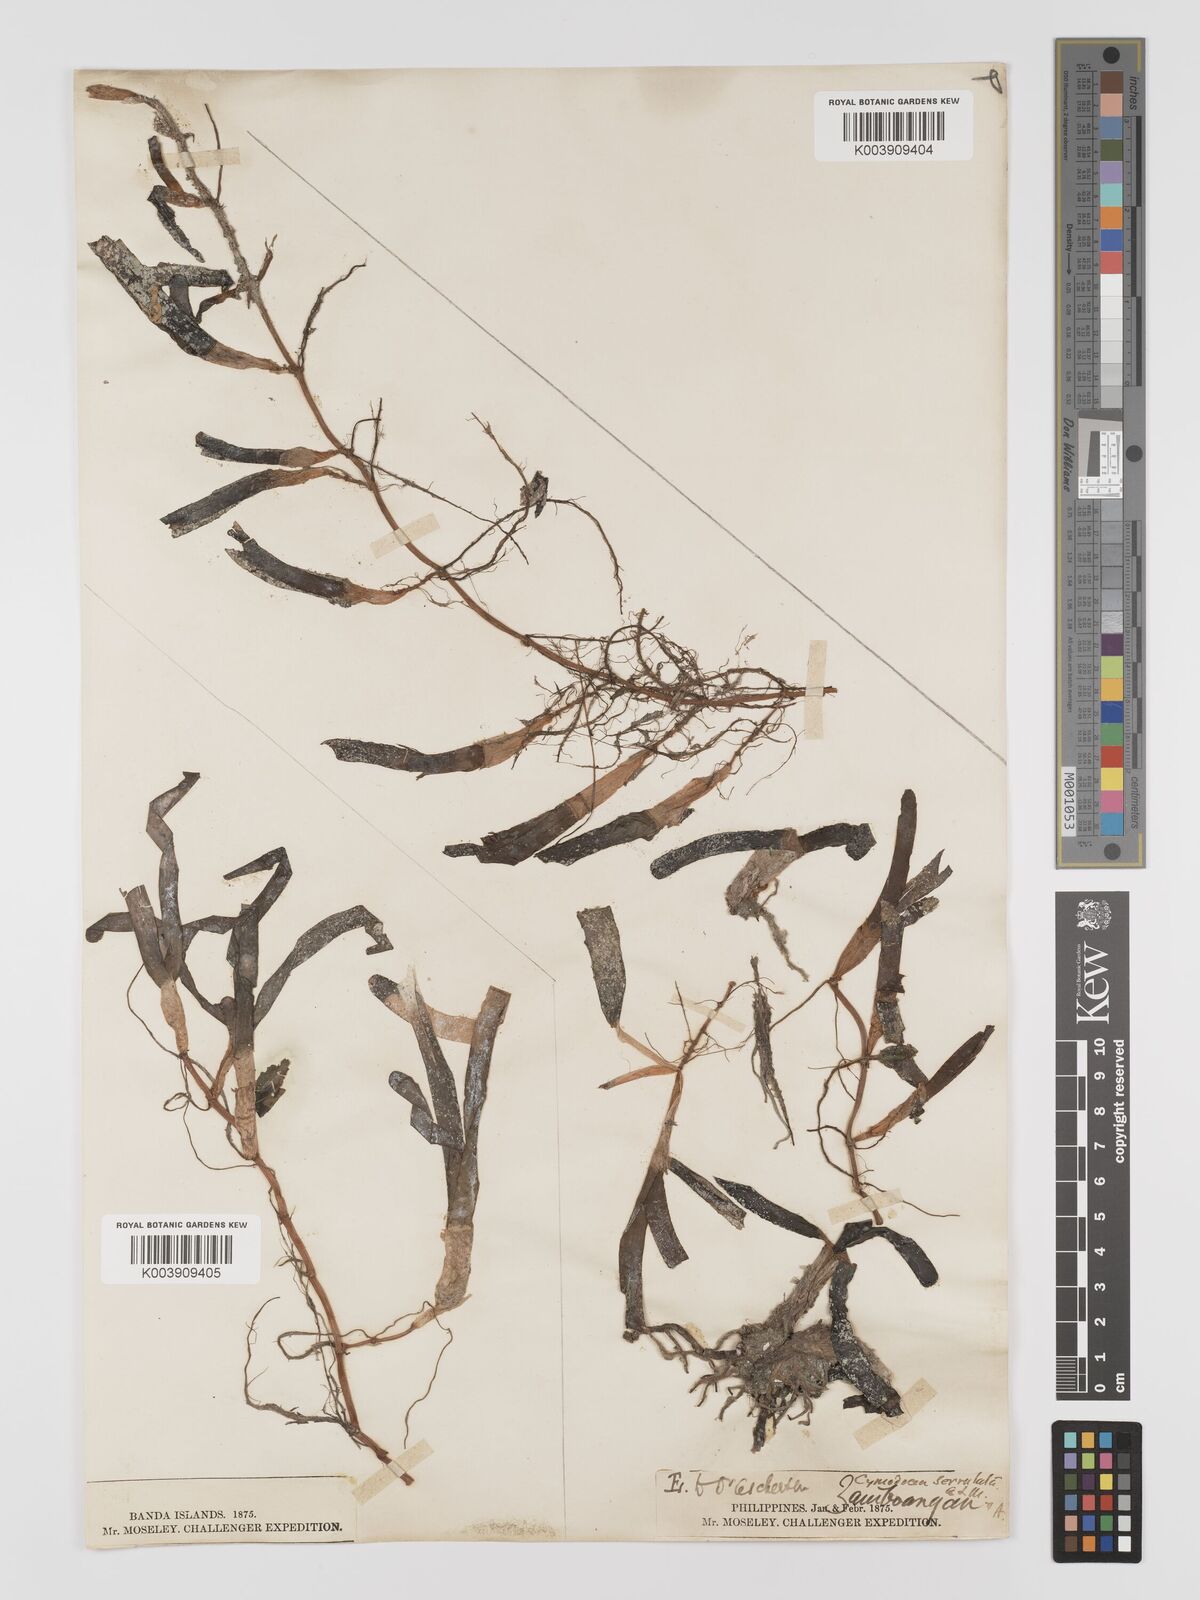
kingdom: Plantae
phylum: Tracheophyta
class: Liliopsida
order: Alismatales
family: Cymodoceaceae
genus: Oceana
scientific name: Oceana serrulata
